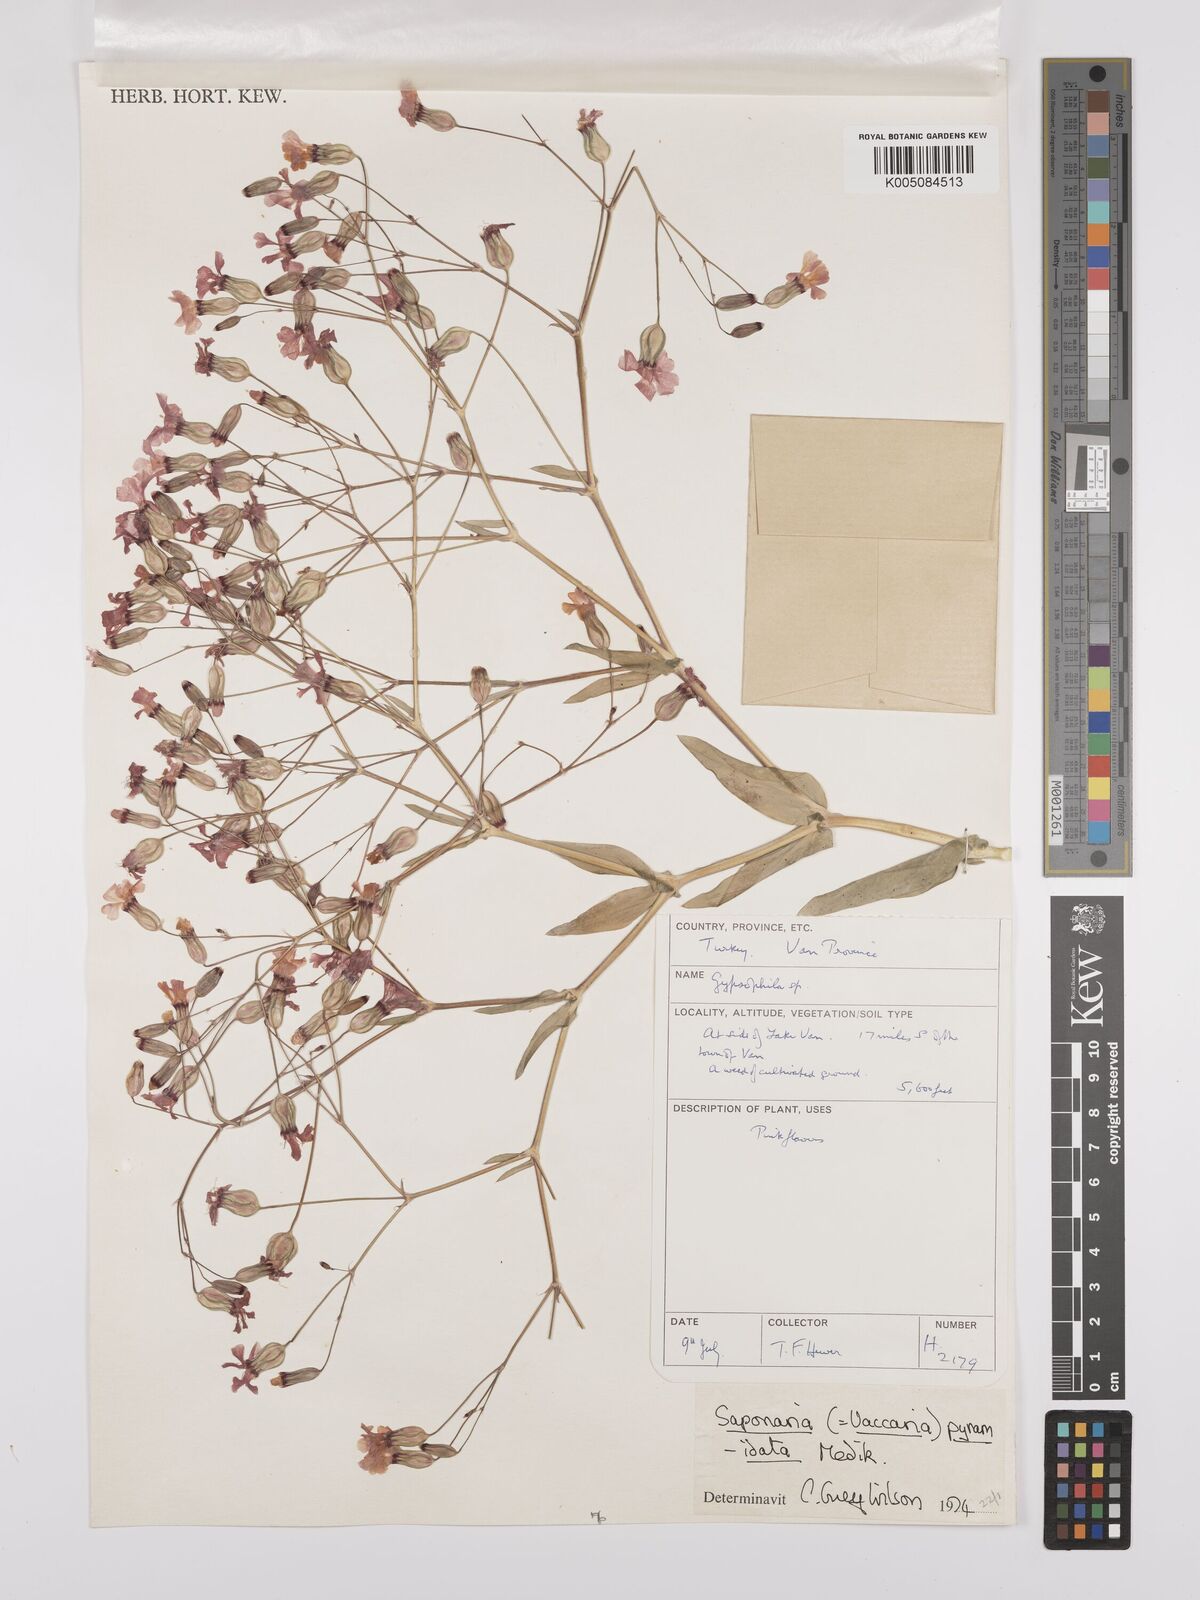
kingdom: Plantae
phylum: Tracheophyta
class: Magnoliopsida
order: Caryophyllales
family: Caryophyllaceae
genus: Gypsophila
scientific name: Gypsophila vaccaria
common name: Cow soapwort
